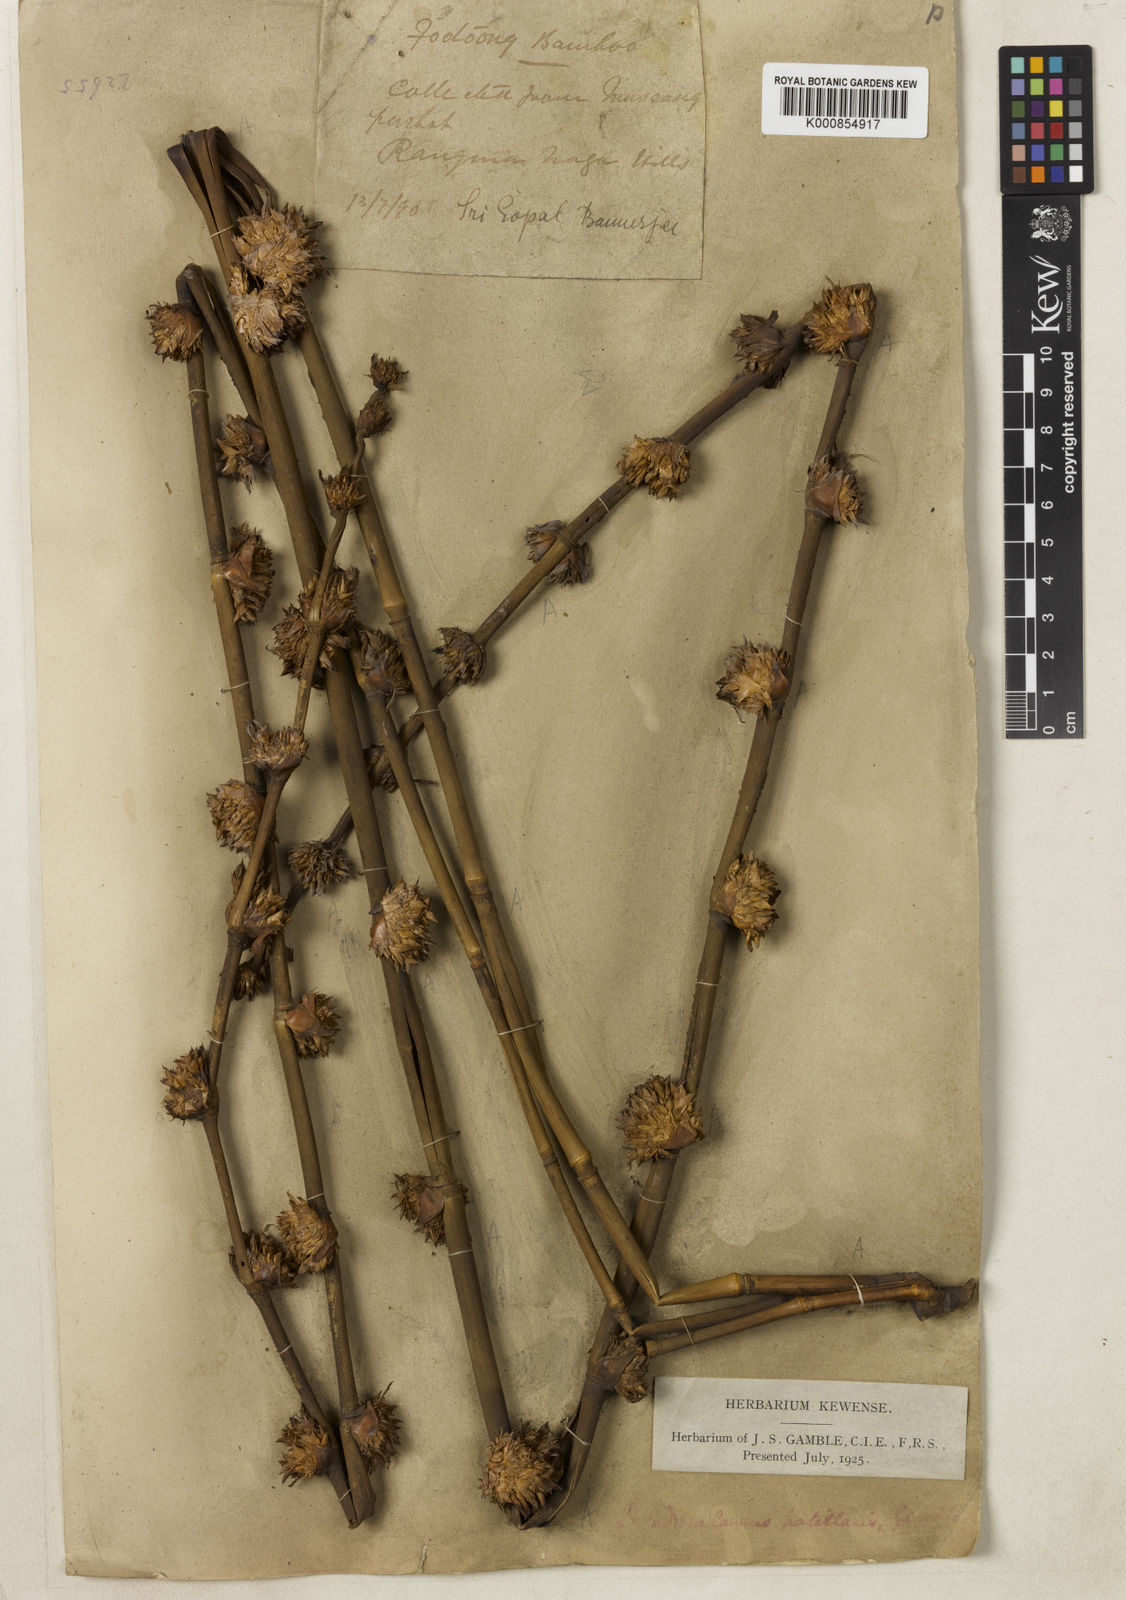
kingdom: Plantae
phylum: Tracheophyta
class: Liliopsida
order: Poales
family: Poaceae
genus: Dendrocalamus
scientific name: Dendrocalamus hamiltonii
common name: Tama bamboo
